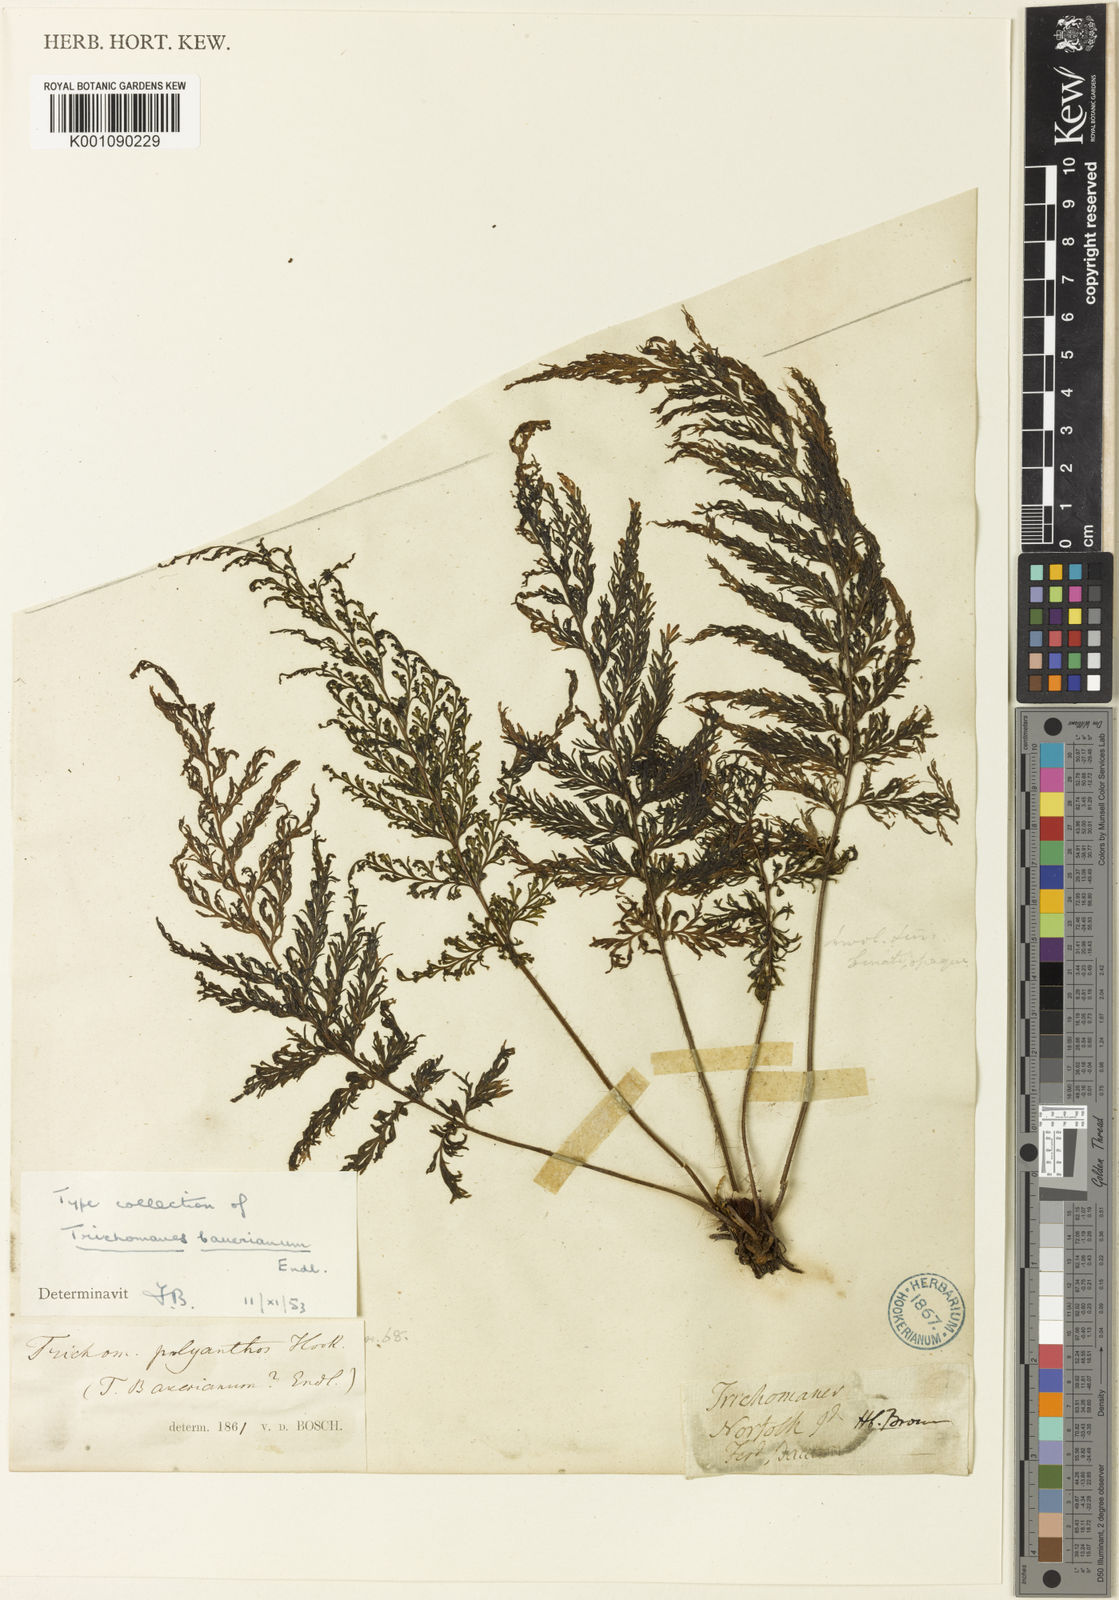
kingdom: Plantae
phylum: Tracheophyta
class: Polypodiopsida
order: Hymenophyllales
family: Hymenophyllaceae
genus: Callistopteris
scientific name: Callistopteris baueriana
